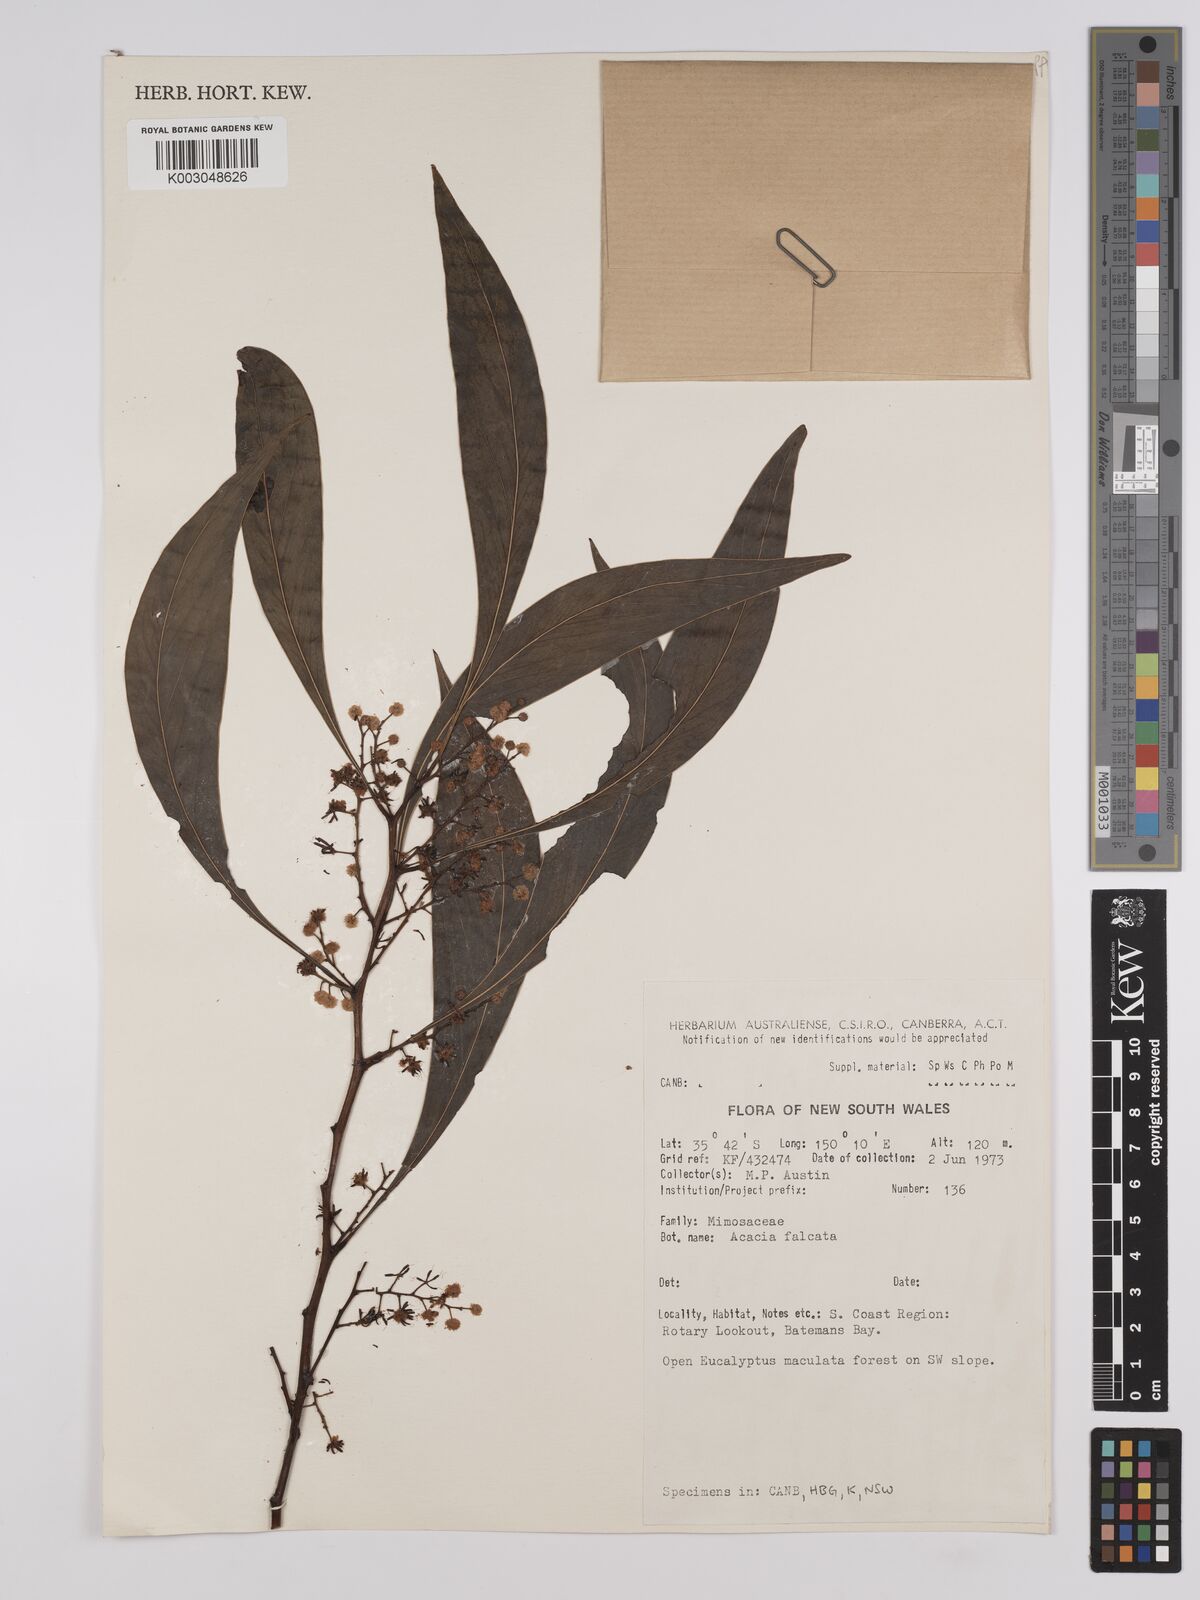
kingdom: Plantae
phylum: Tracheophyta
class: Magnoliopsida
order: Fabales
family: Fabaceae
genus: Acacia
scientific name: Acacia falcata
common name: Burra acacia
